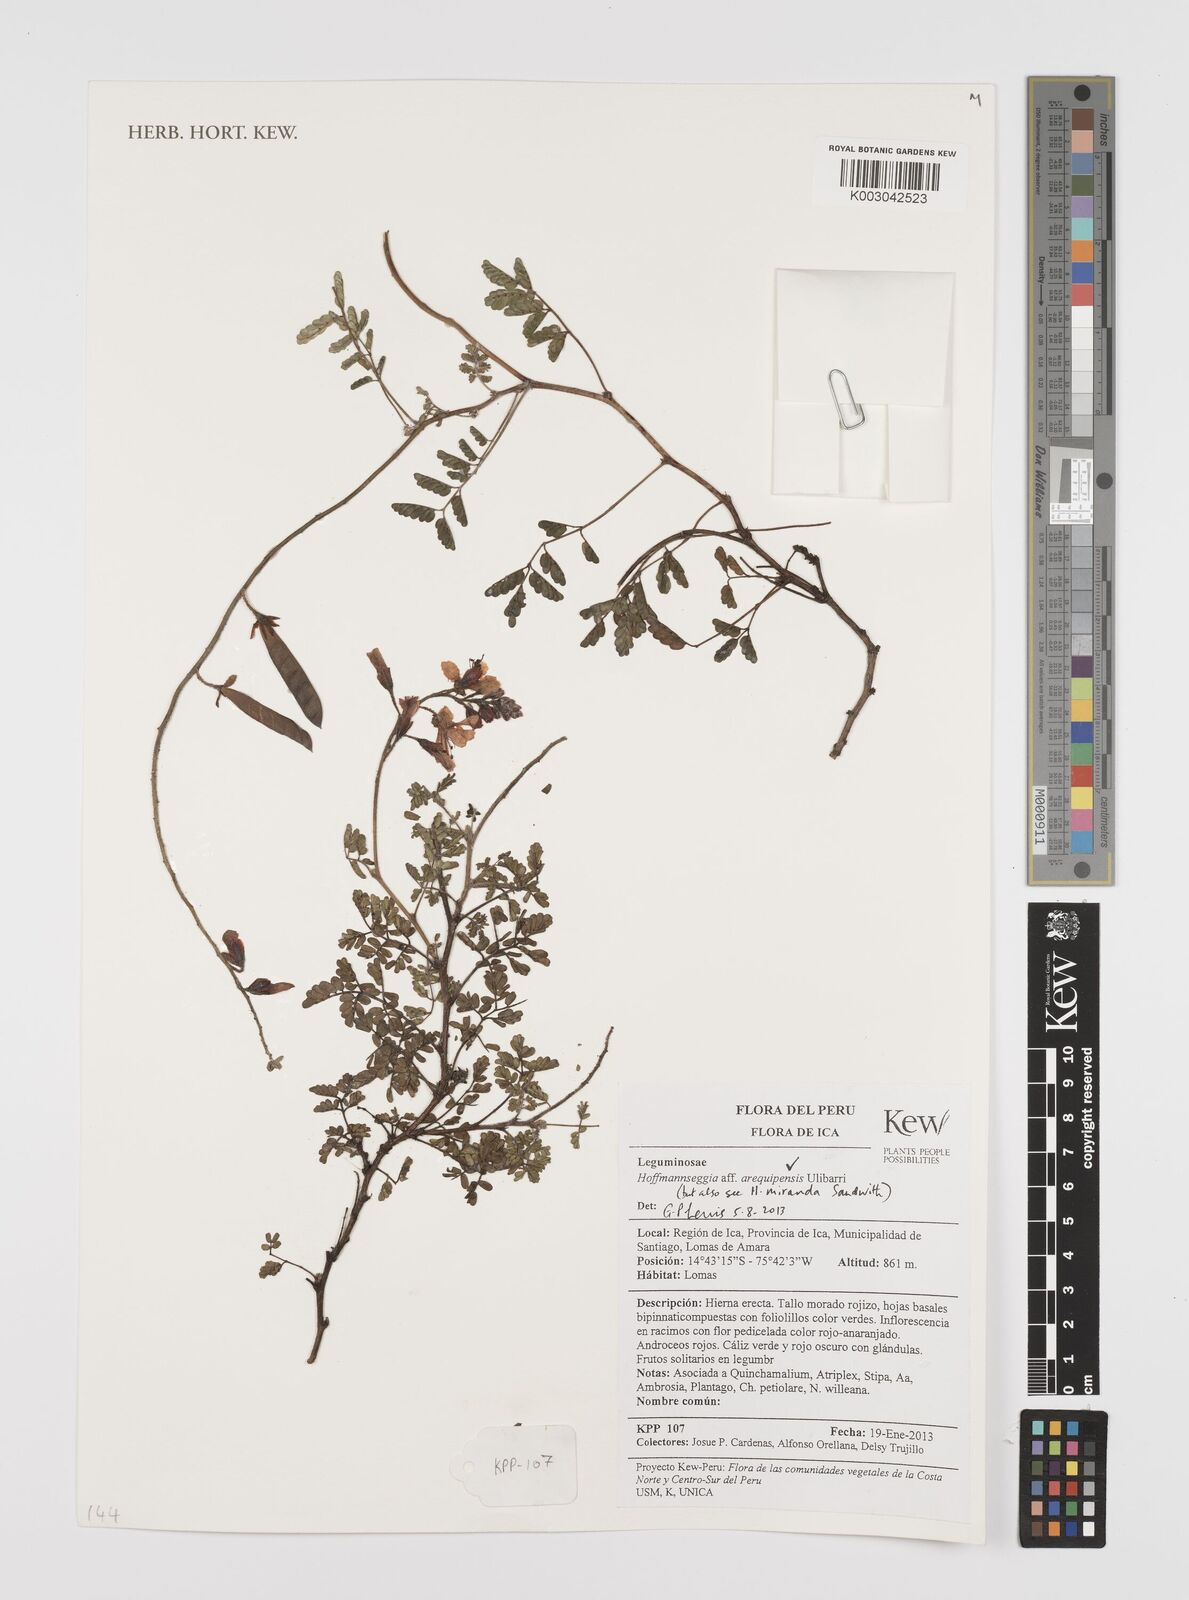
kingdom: Plantae
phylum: Tracheophyta
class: Magnoliopsida
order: Fabales
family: Fabaceae
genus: Hoffmannseggia
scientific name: Hoffmannseggia arequipensis
